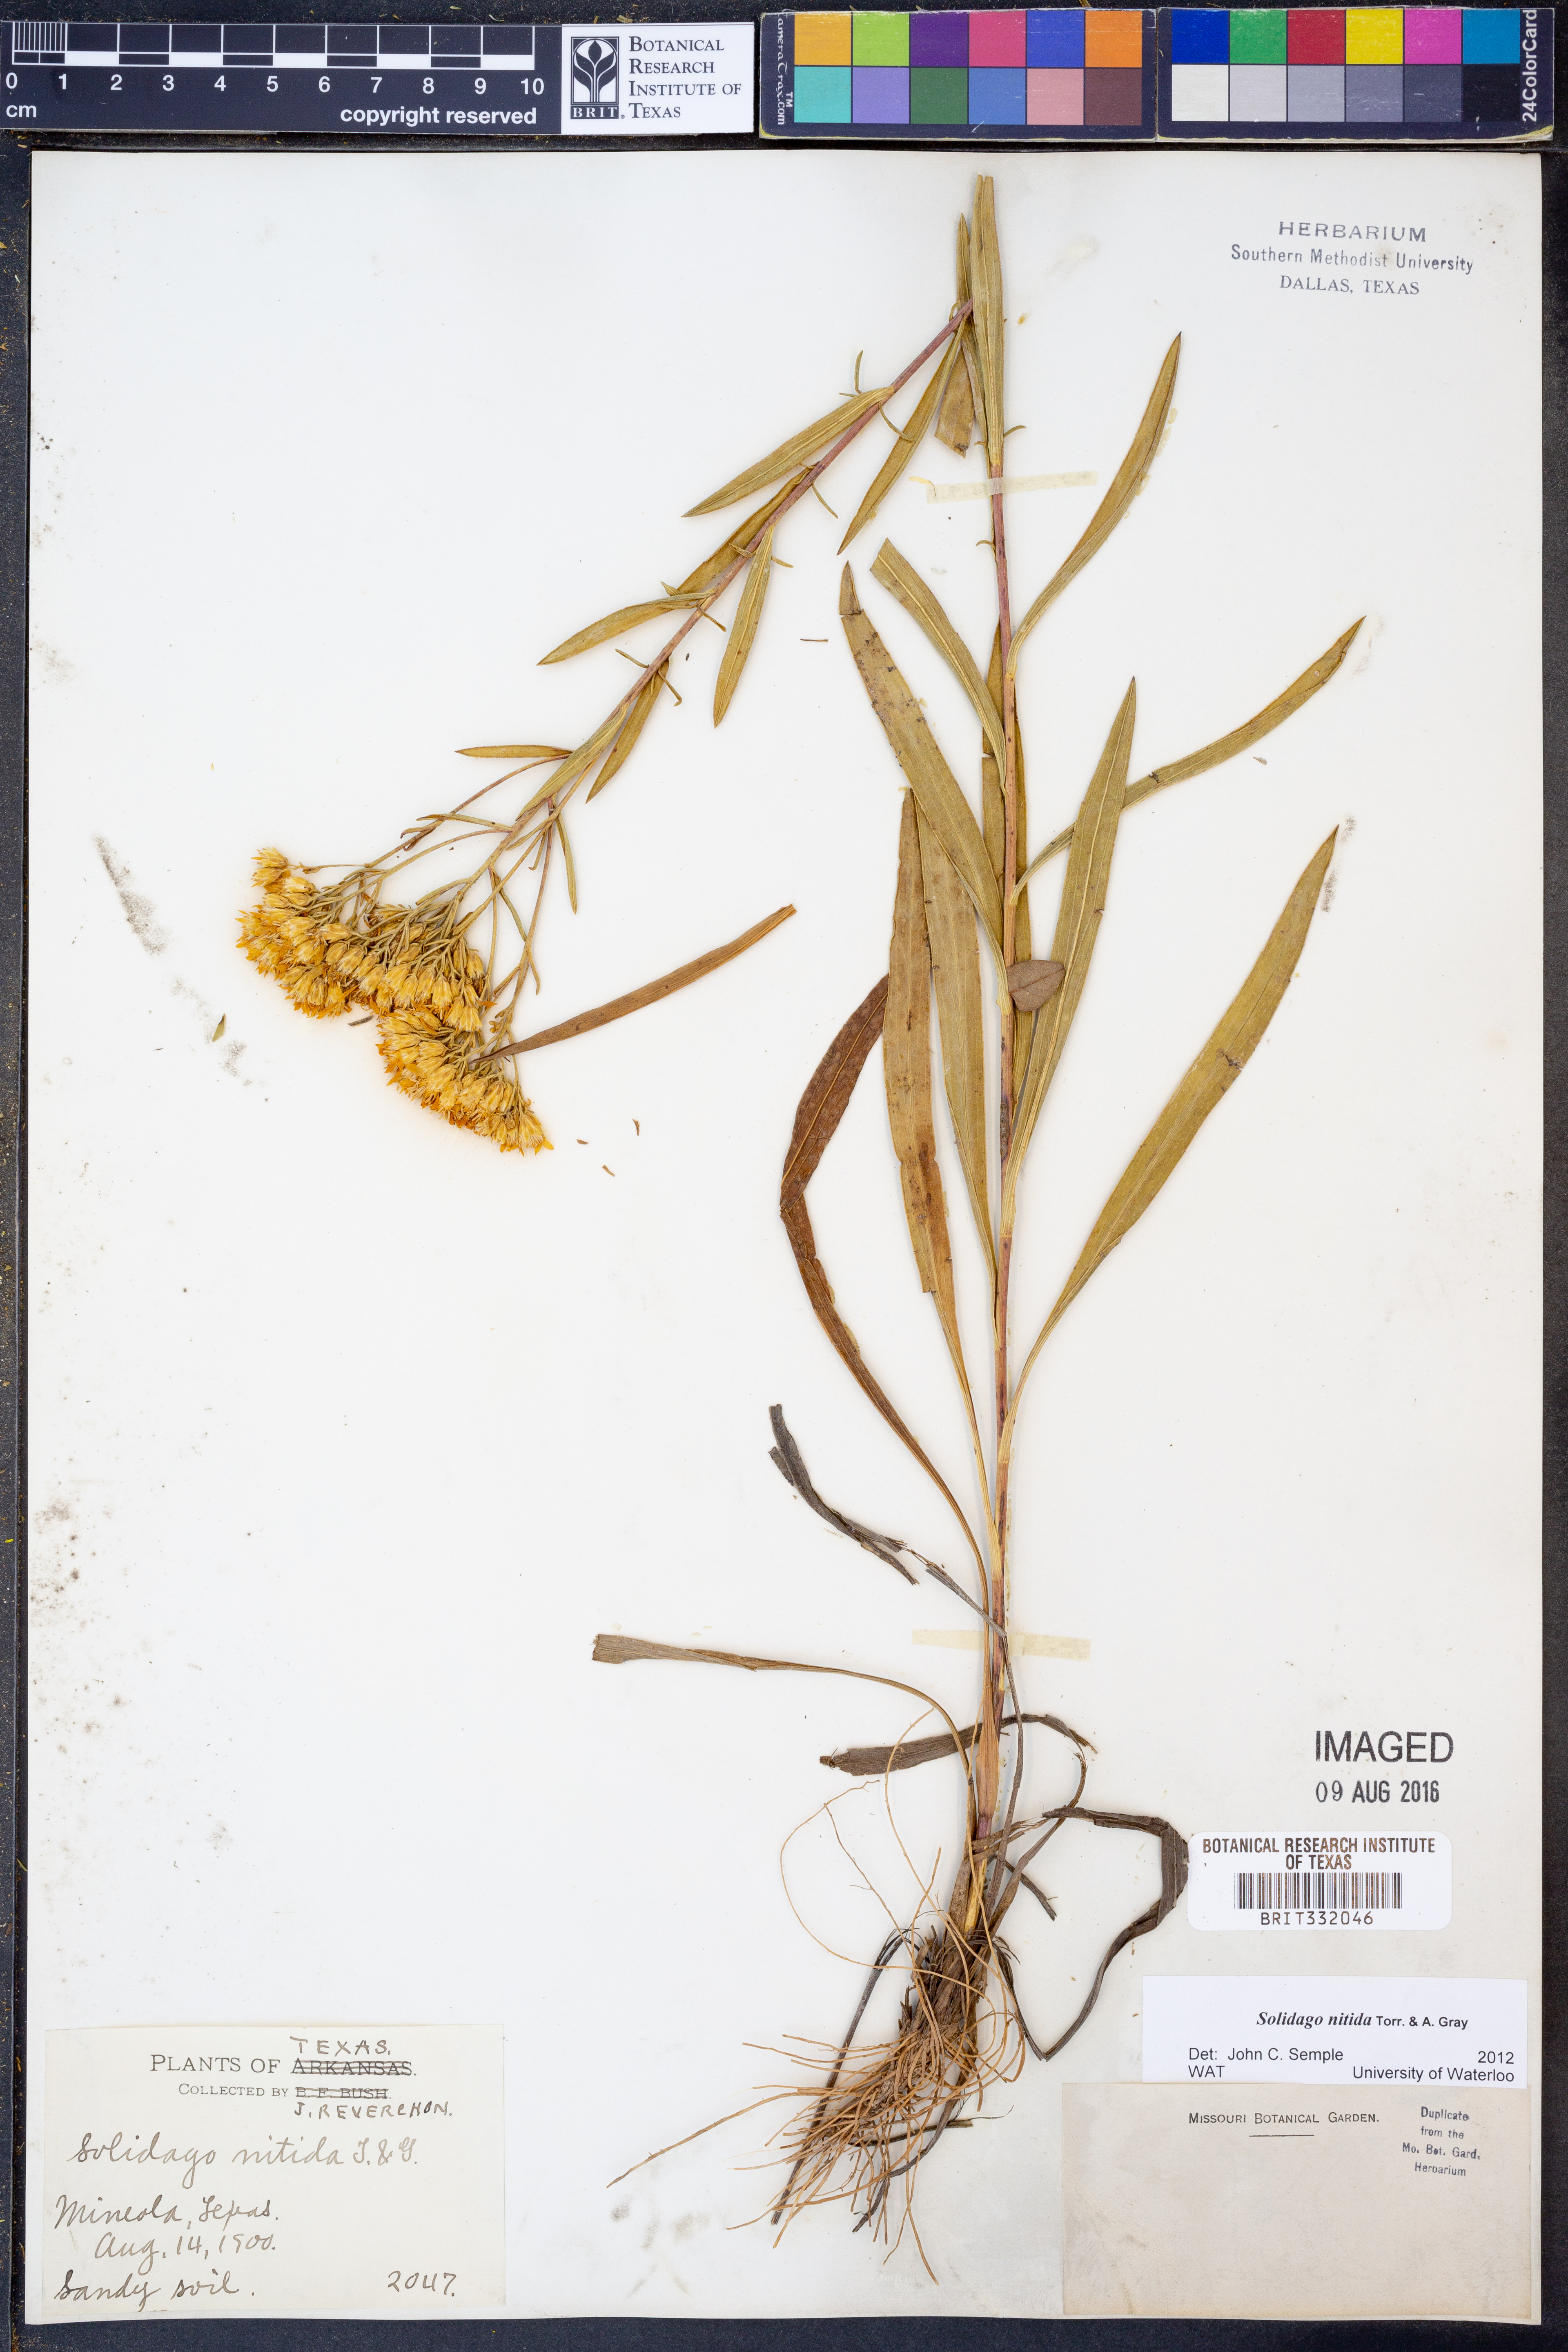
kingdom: Plantae
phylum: Tracheophyta
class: Magnoliopsida
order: Asterales
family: Asteraceae
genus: Solidago
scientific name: Solidago nitida
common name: Shiny goldenrod
